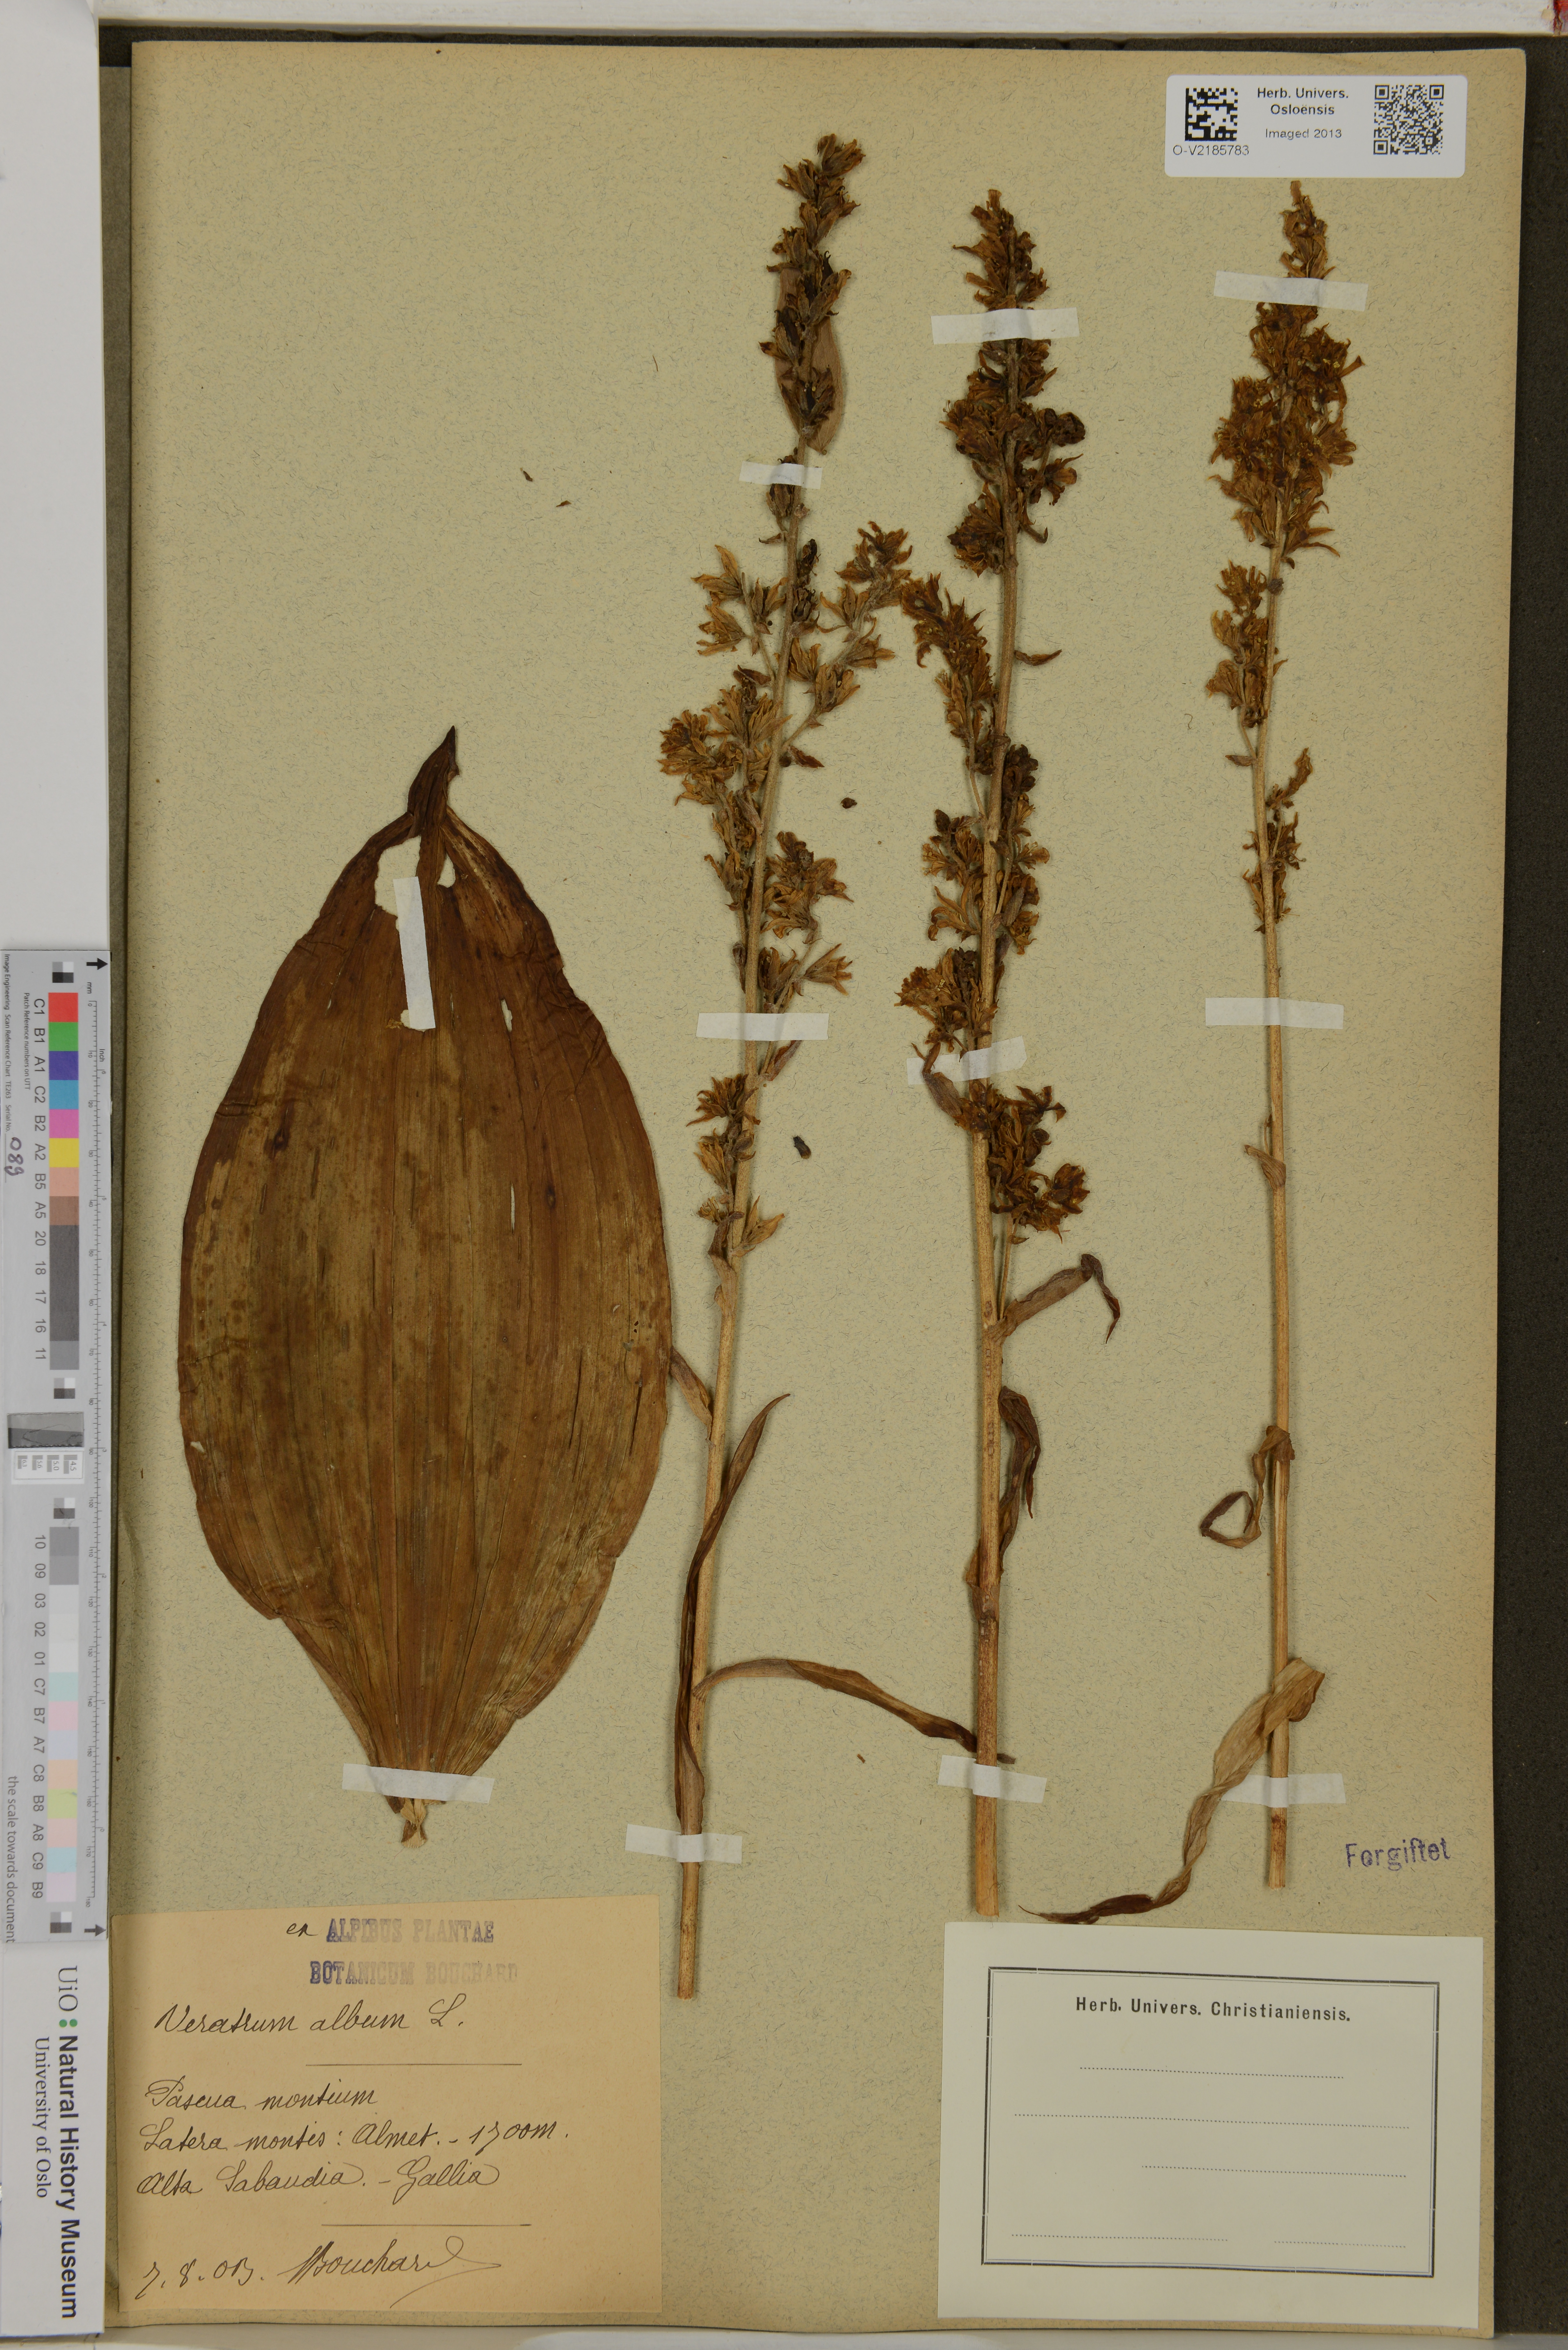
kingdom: Plantae
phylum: Tracheophyta
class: Liliopsida
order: Liliales
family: Melanthiaceae
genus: Veratrum
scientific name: Veratrum album
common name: White veratrum
